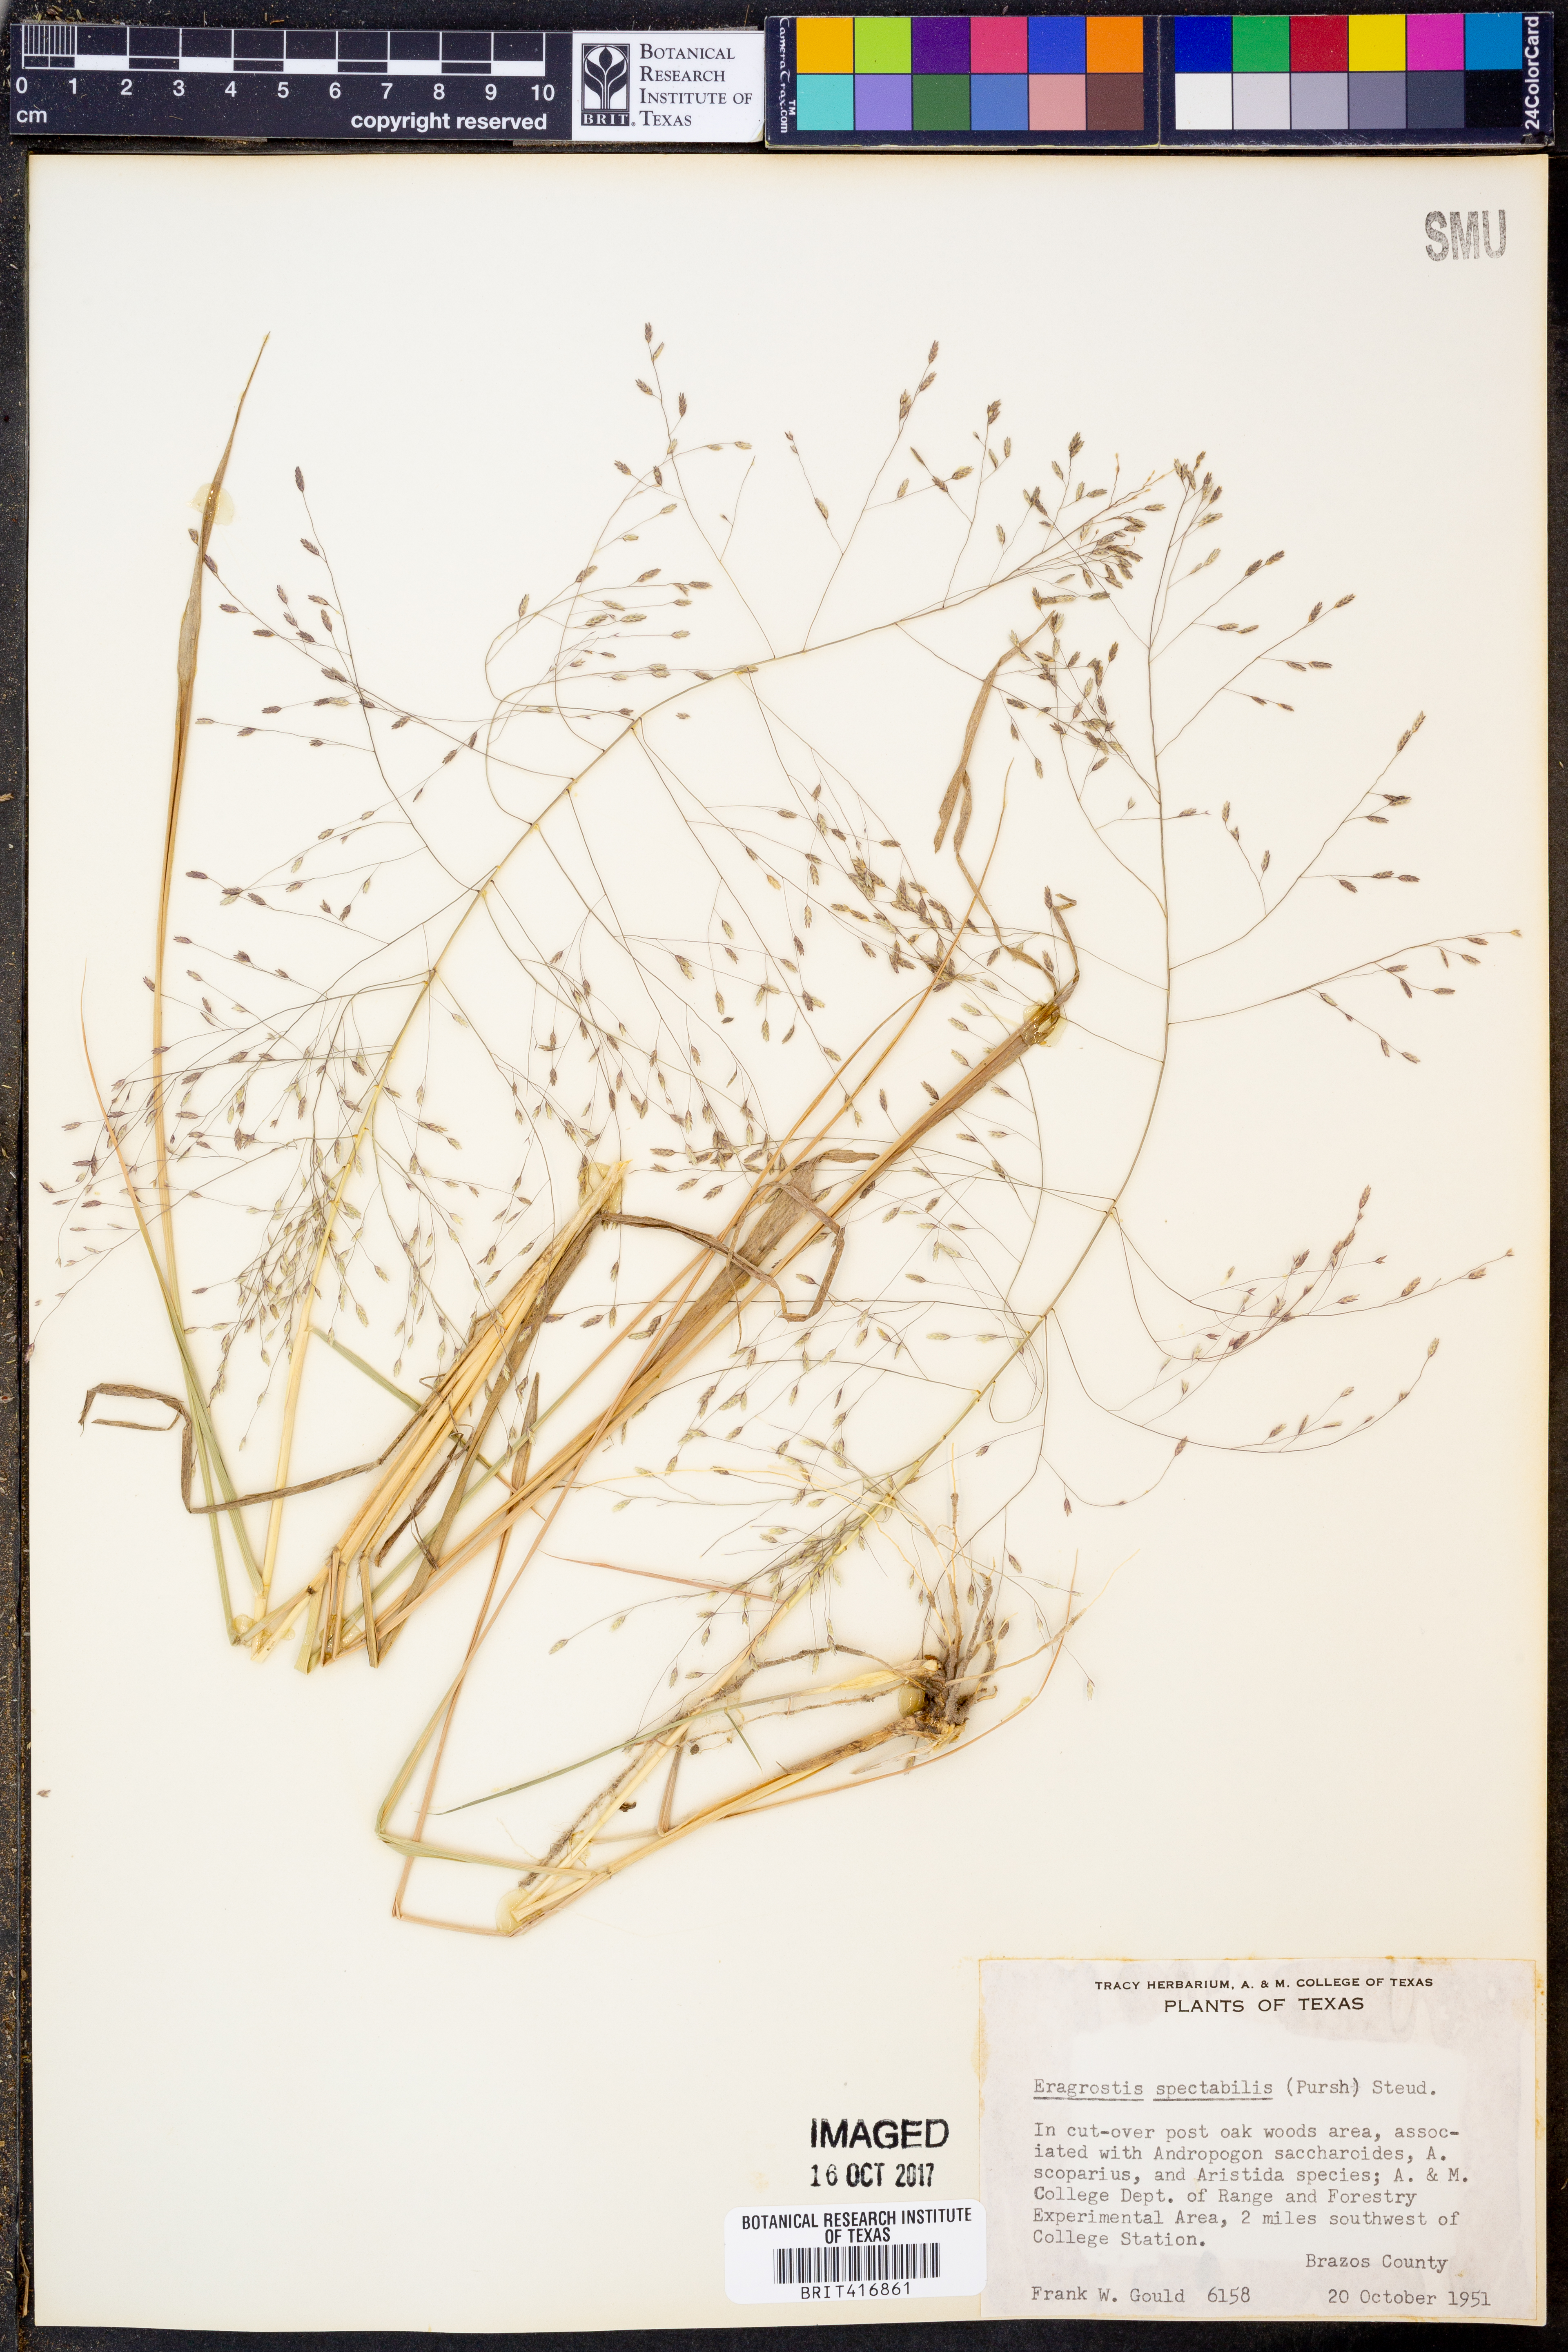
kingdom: Plantae
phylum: Tracheophyta
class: Liliopsida
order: Poales
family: Poaceae
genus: Eragrostis
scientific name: Eragrostis spectabilis
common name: Petticoat-climber
